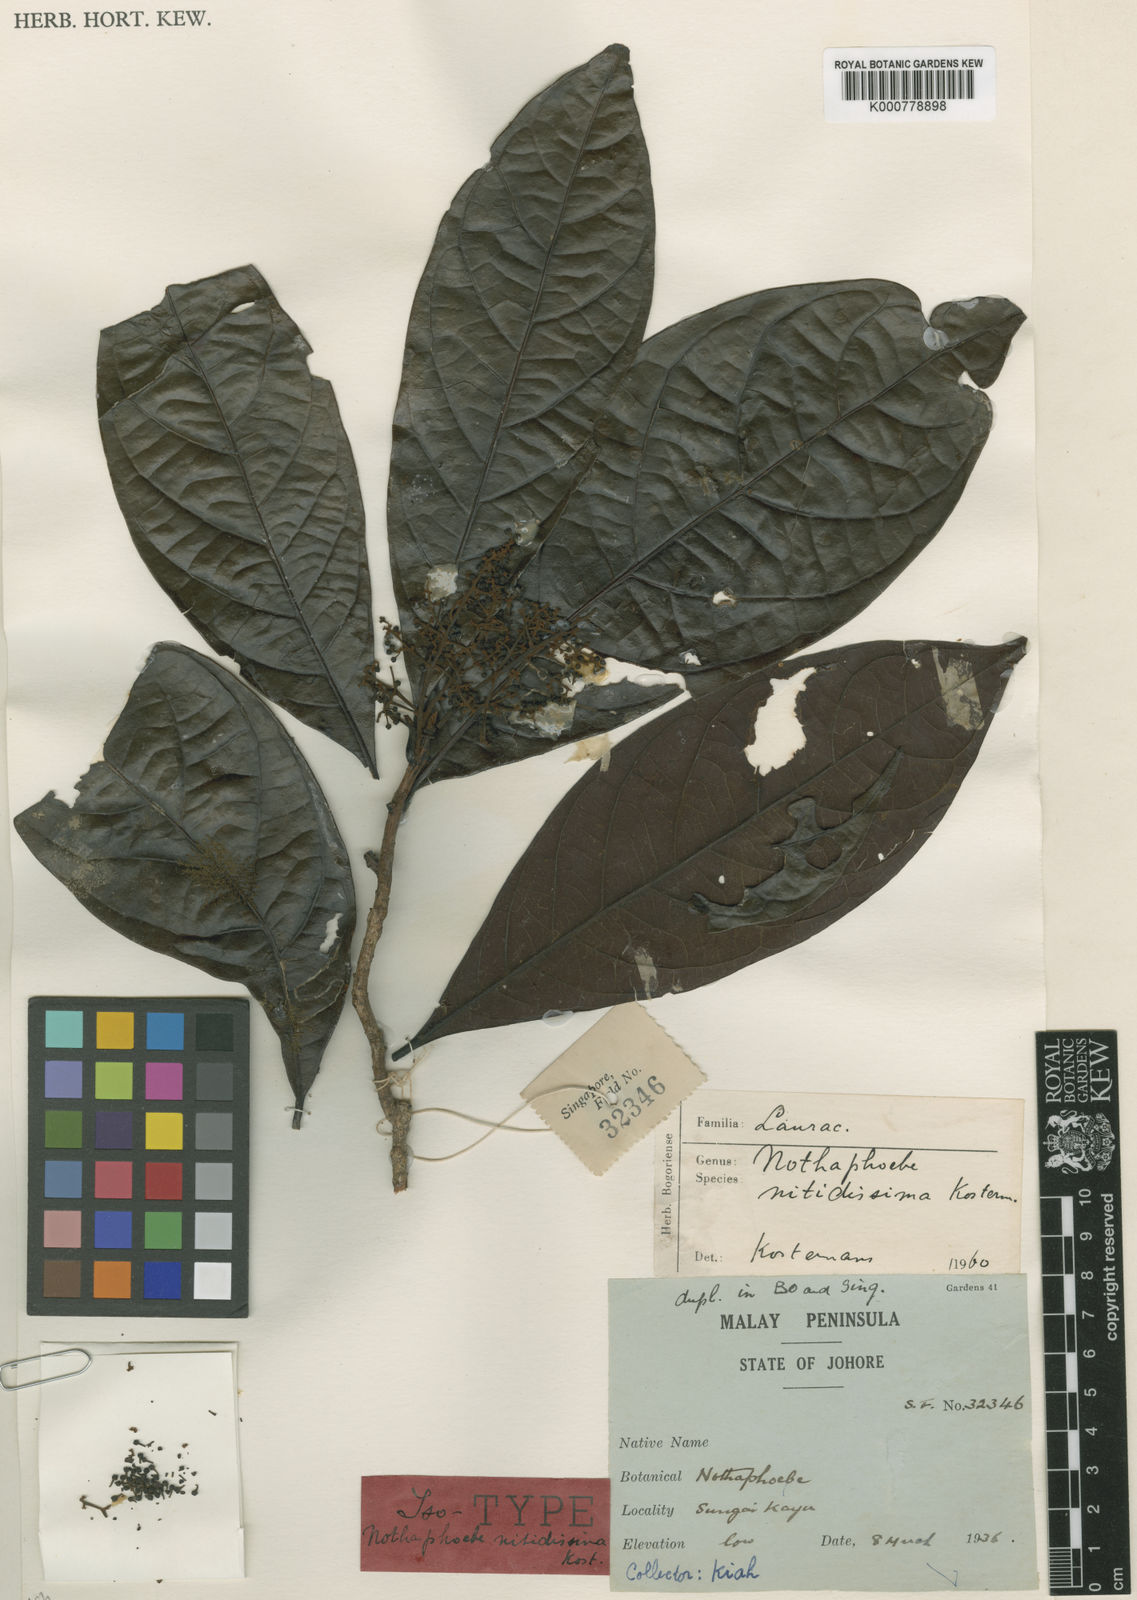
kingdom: Plantae
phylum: Tracheophyta
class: Magnoliopsida
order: Laurales
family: Lauraceae
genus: Nothaphoebe
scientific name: Nothaphoebe
